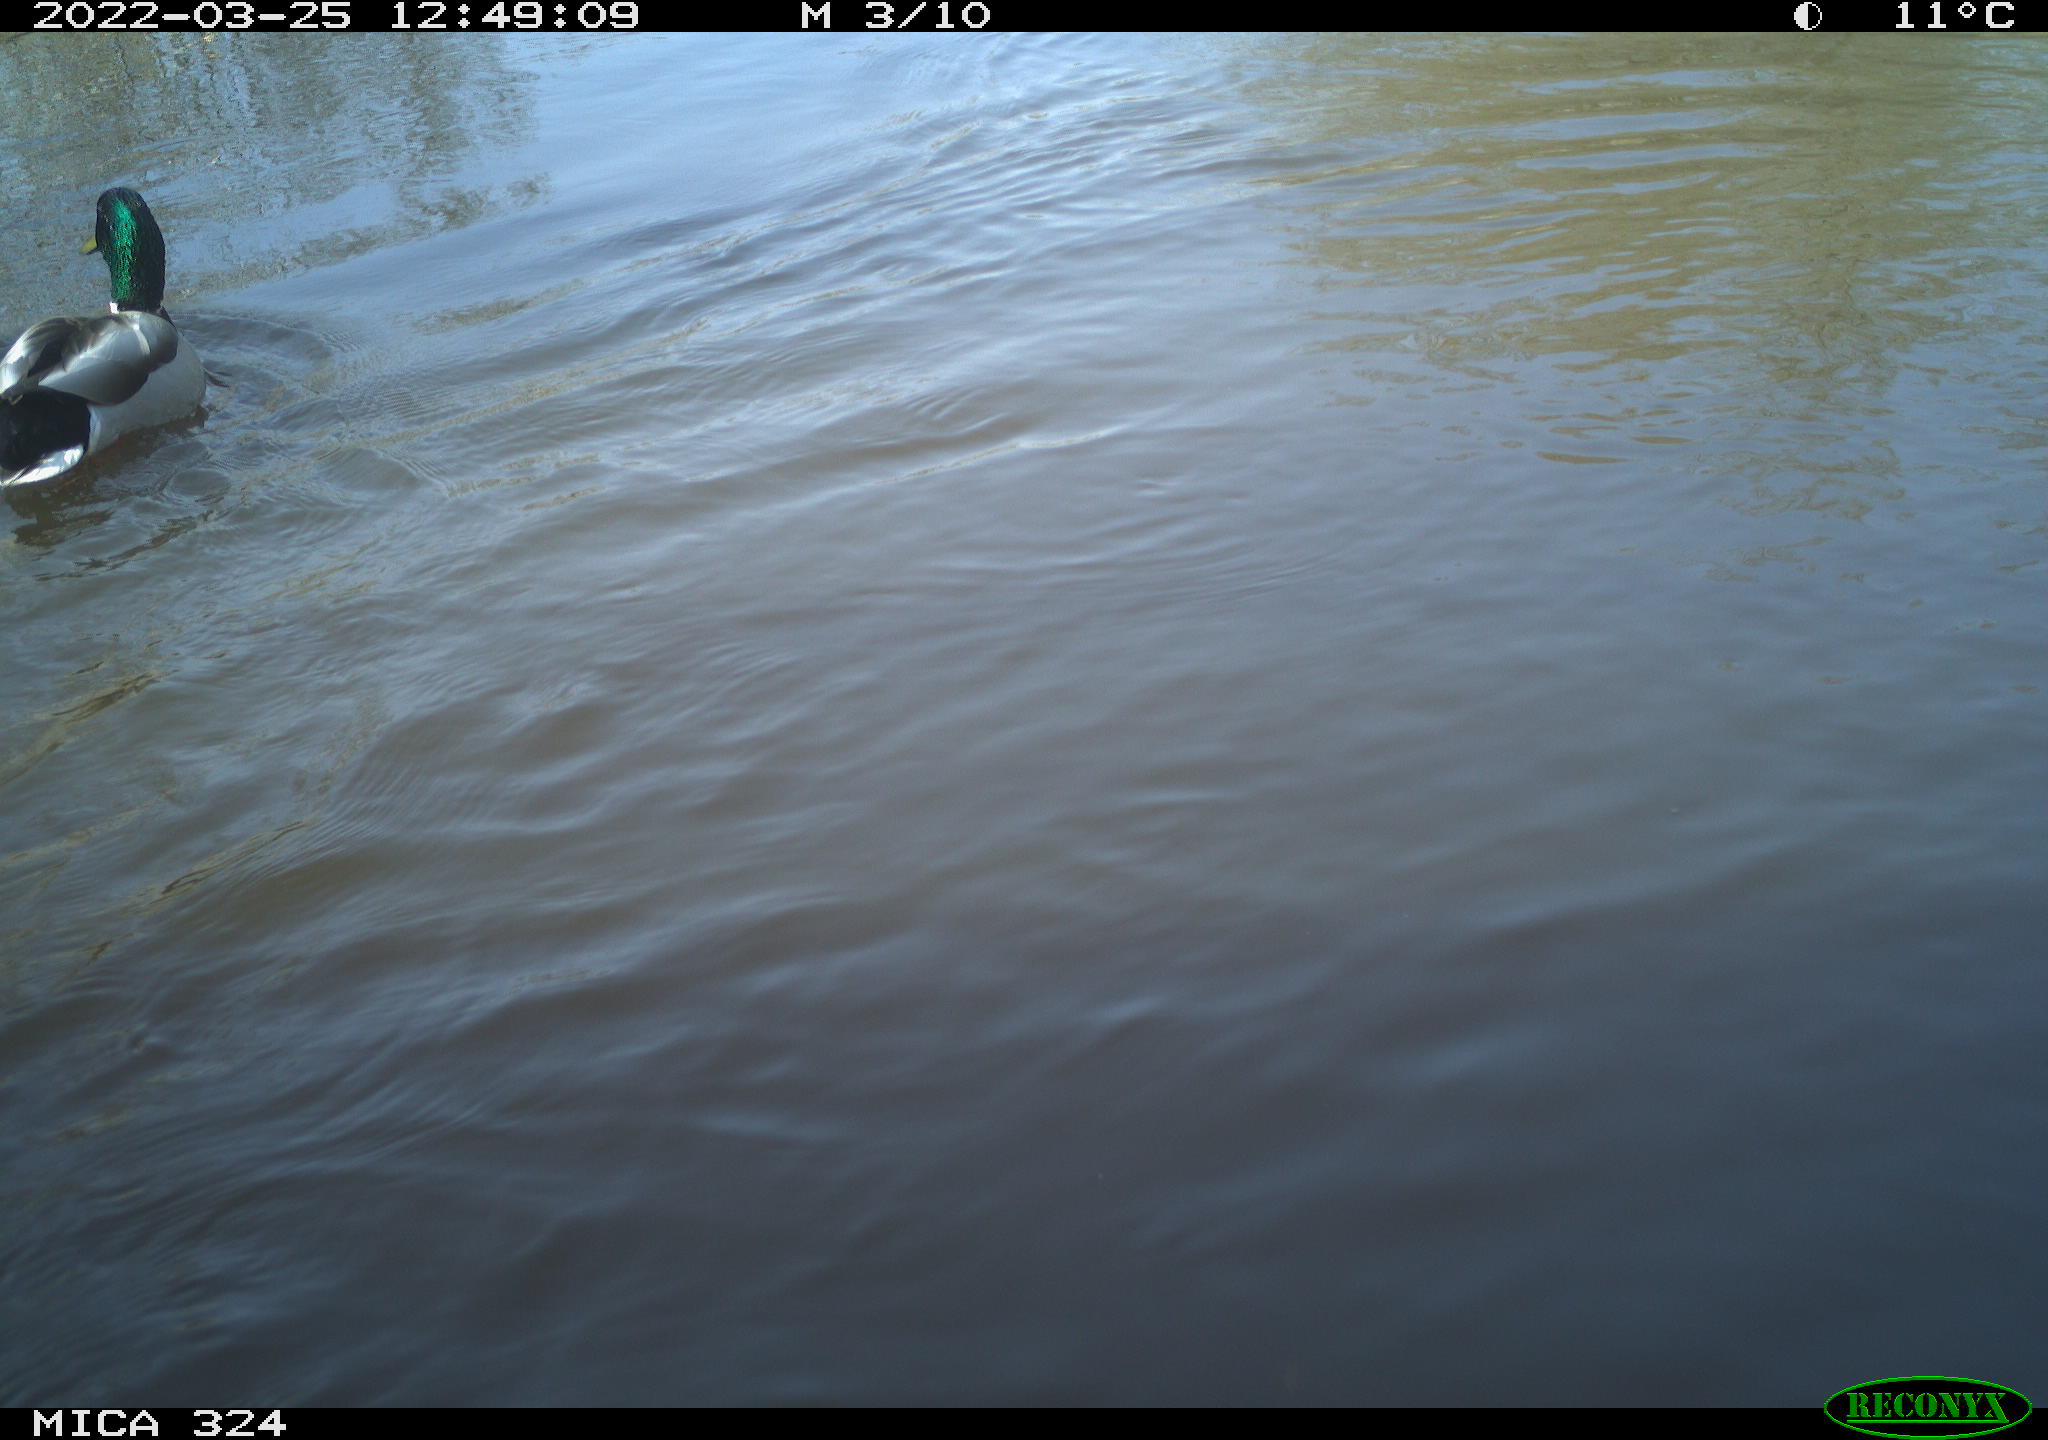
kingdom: Animalia
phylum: Chordata
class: Aves
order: Anseriformes
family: Anatidae
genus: Anas
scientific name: Anas platyrhynchos
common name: Mallard
